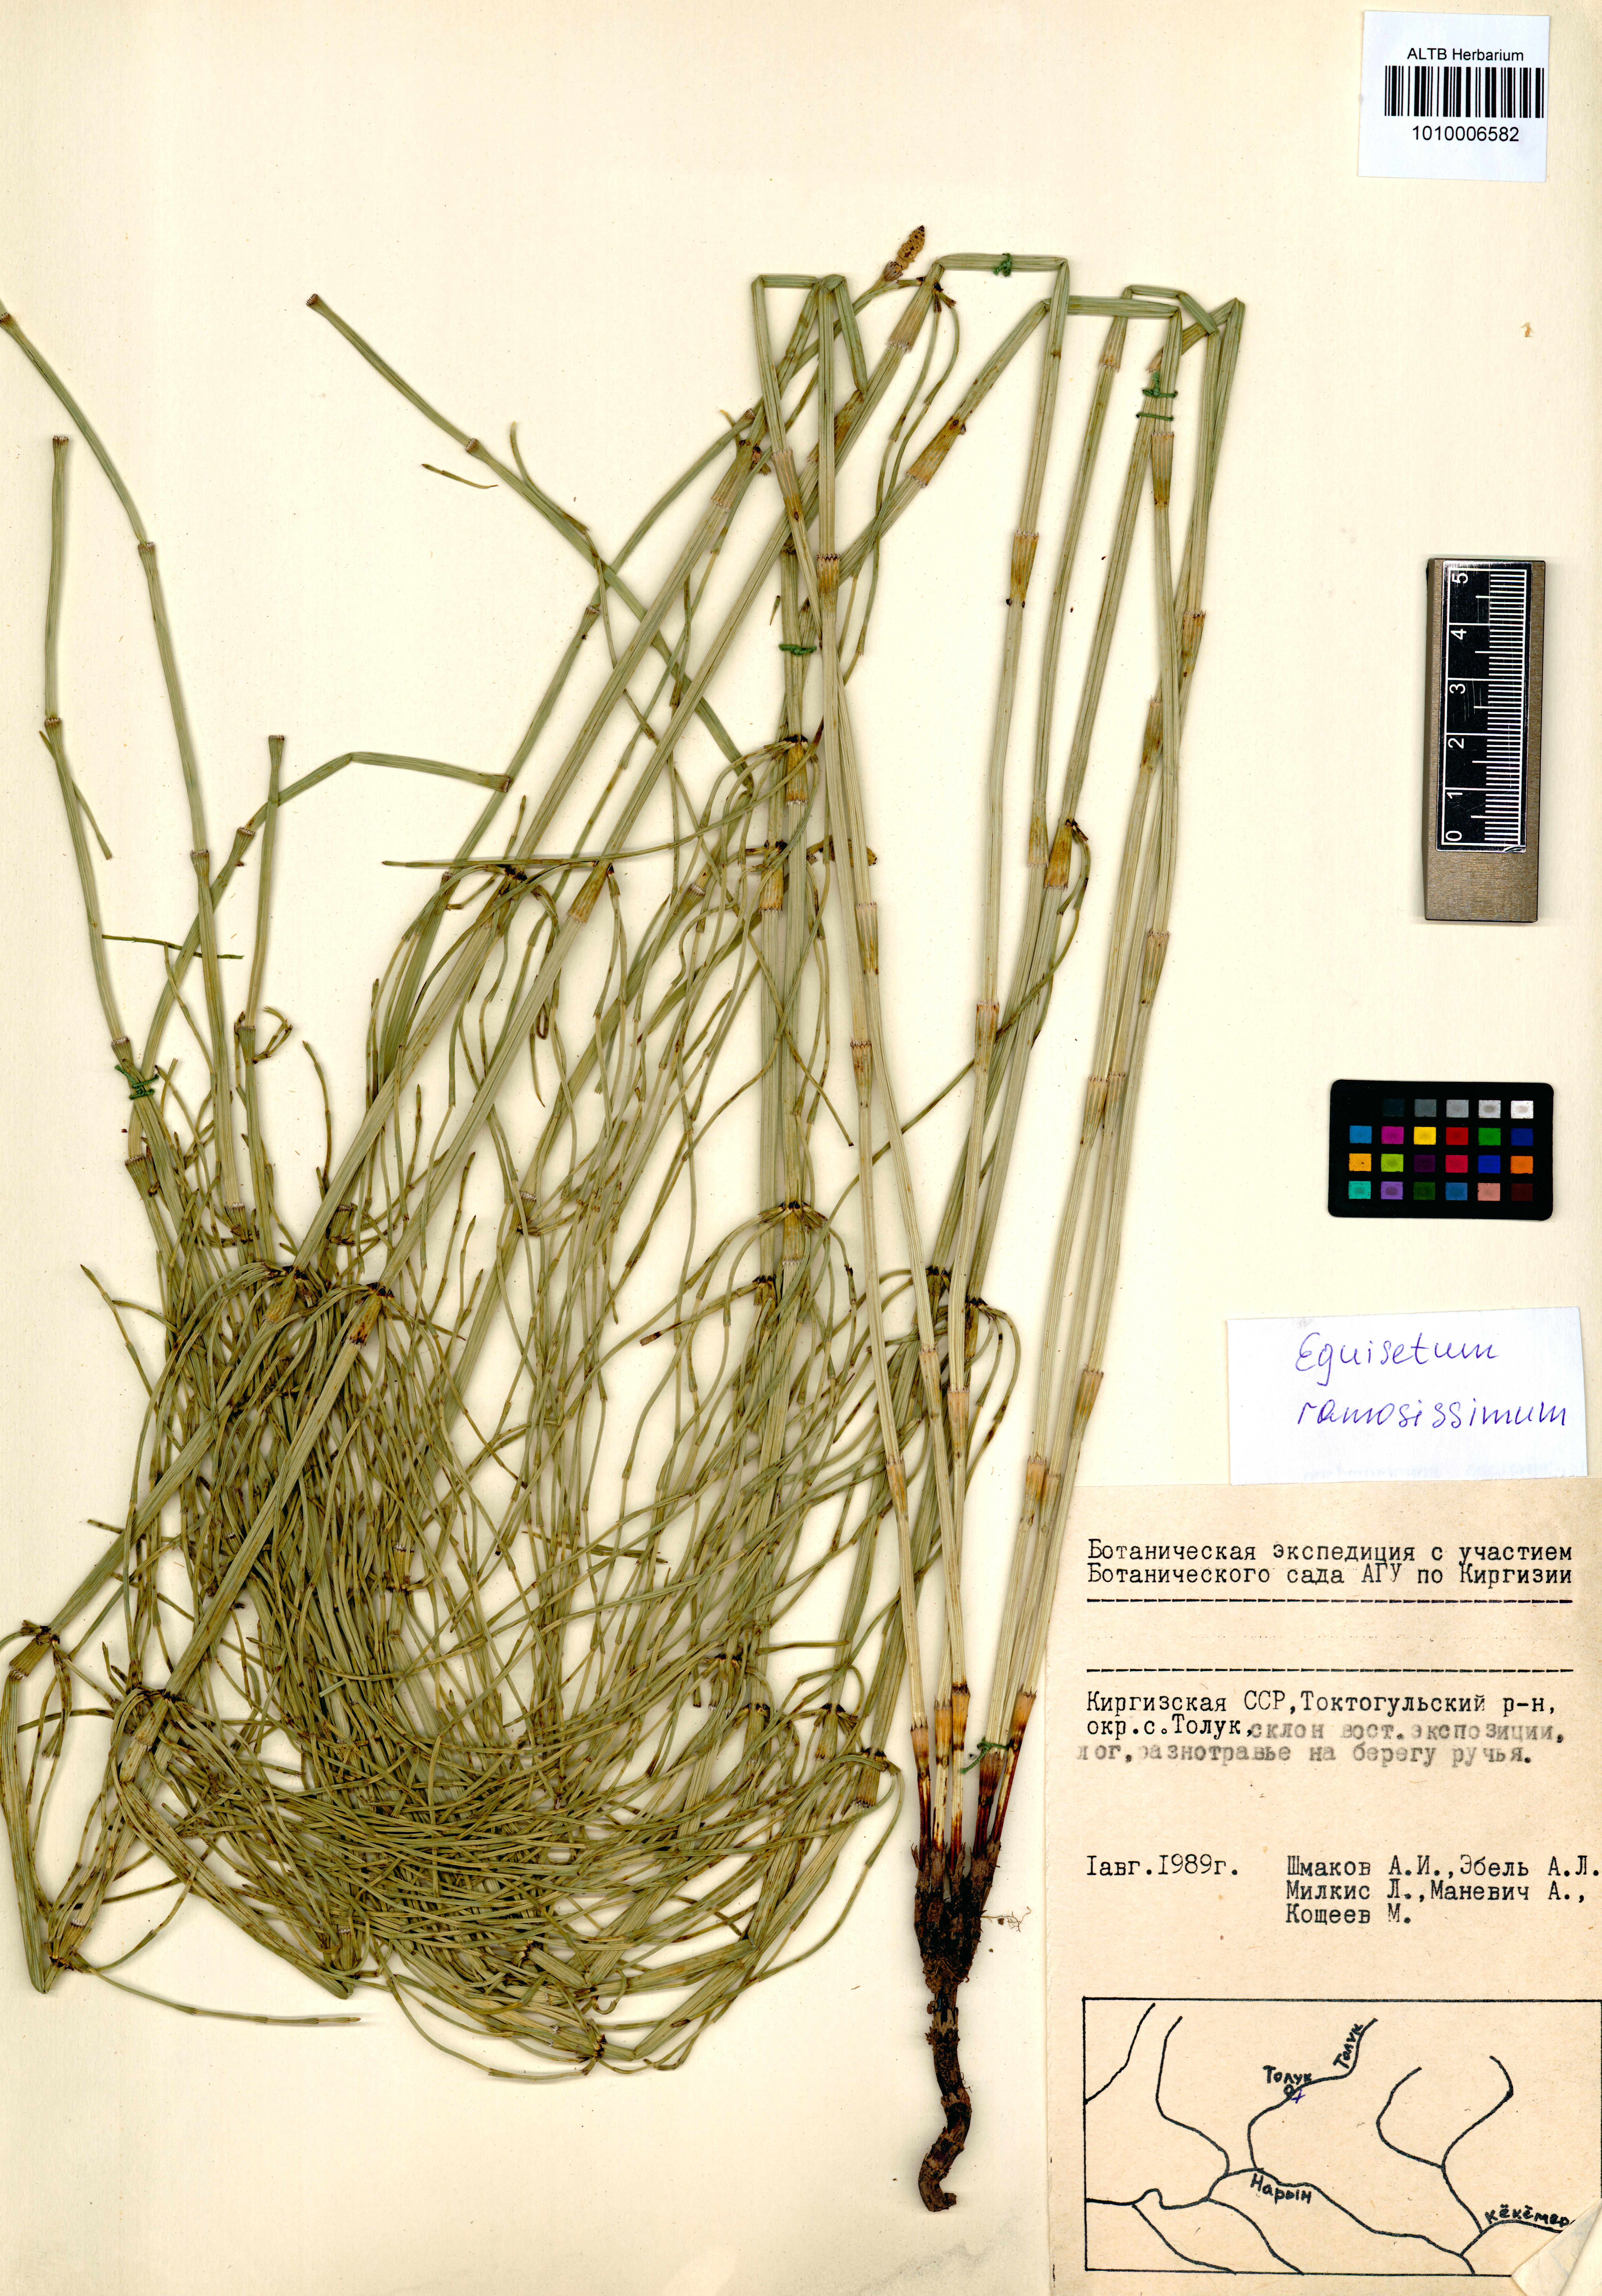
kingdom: Plantae
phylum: Tracheophyta
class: Polypodiopsida
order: Equisetales
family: Equisetaceae
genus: Equisetum
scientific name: Equisetum ramosissimum
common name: Branched horsetail
